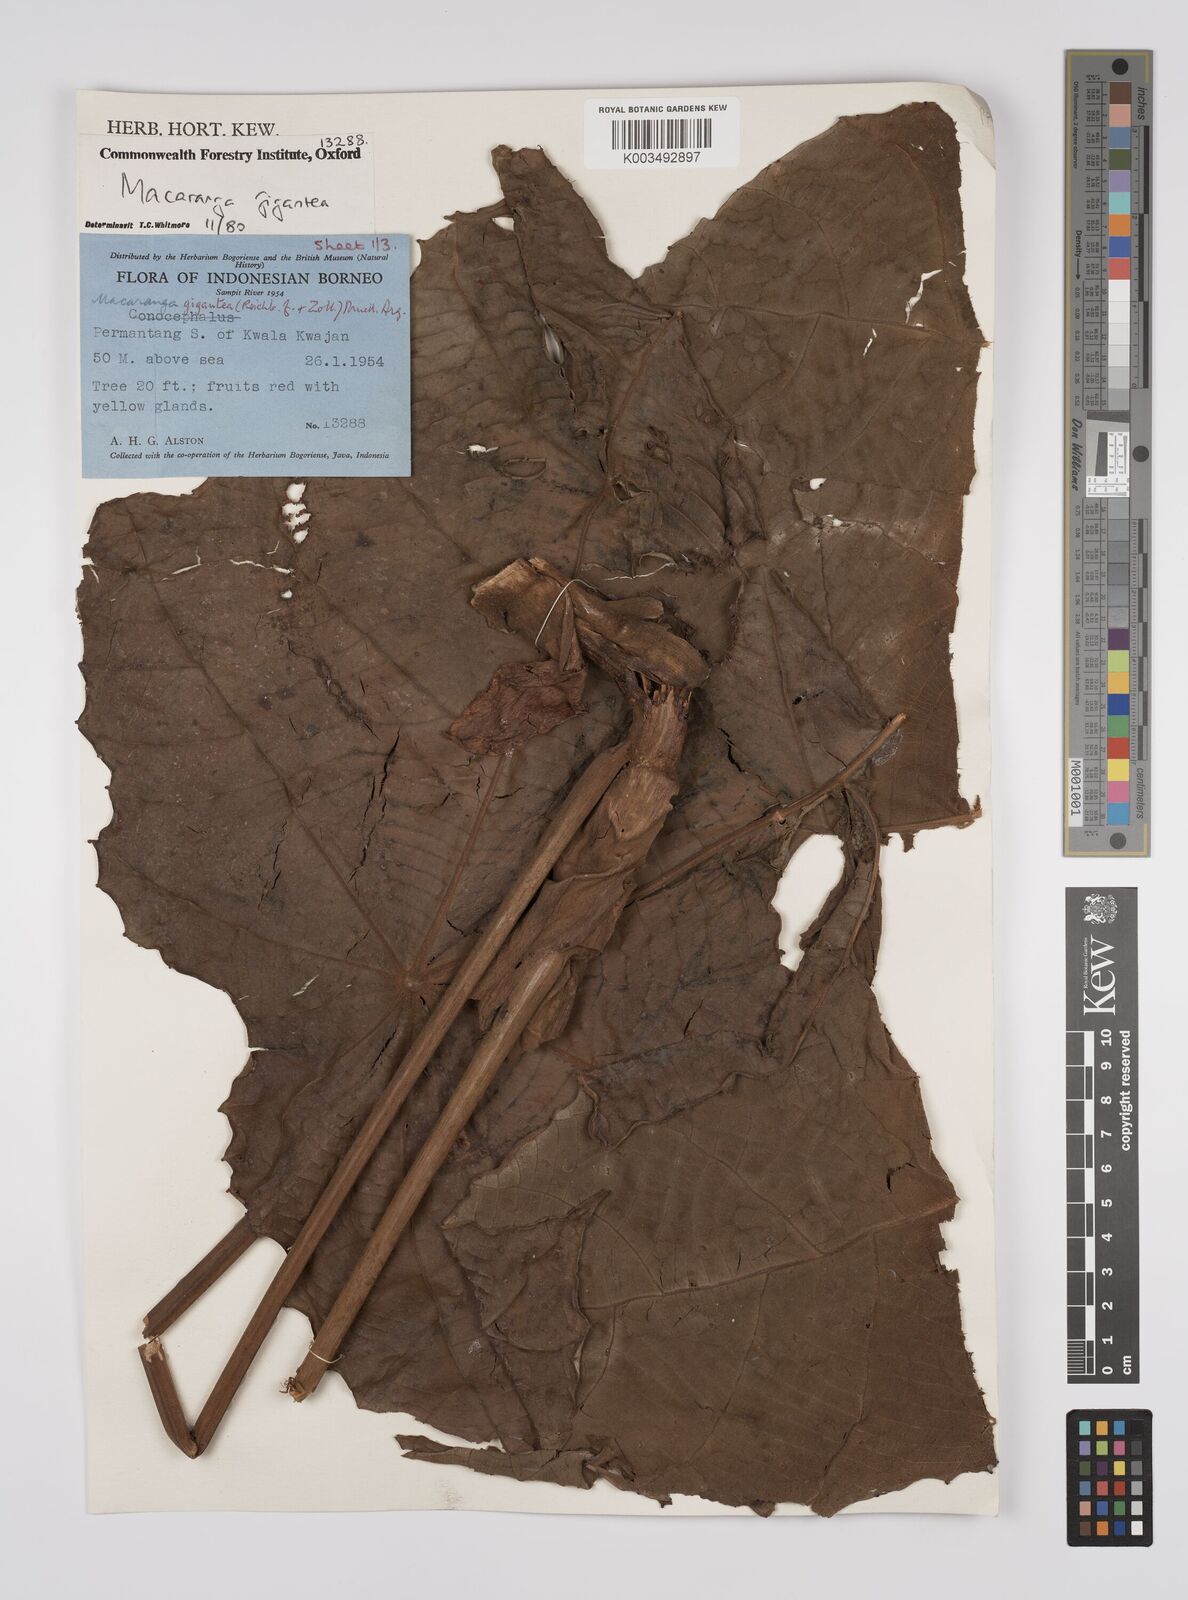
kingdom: Plantae
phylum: Tracheophyta
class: Magnoliopsida
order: Malpighiales
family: Euphorbiaceae
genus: Macaranga
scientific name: Macaranga gigantea
